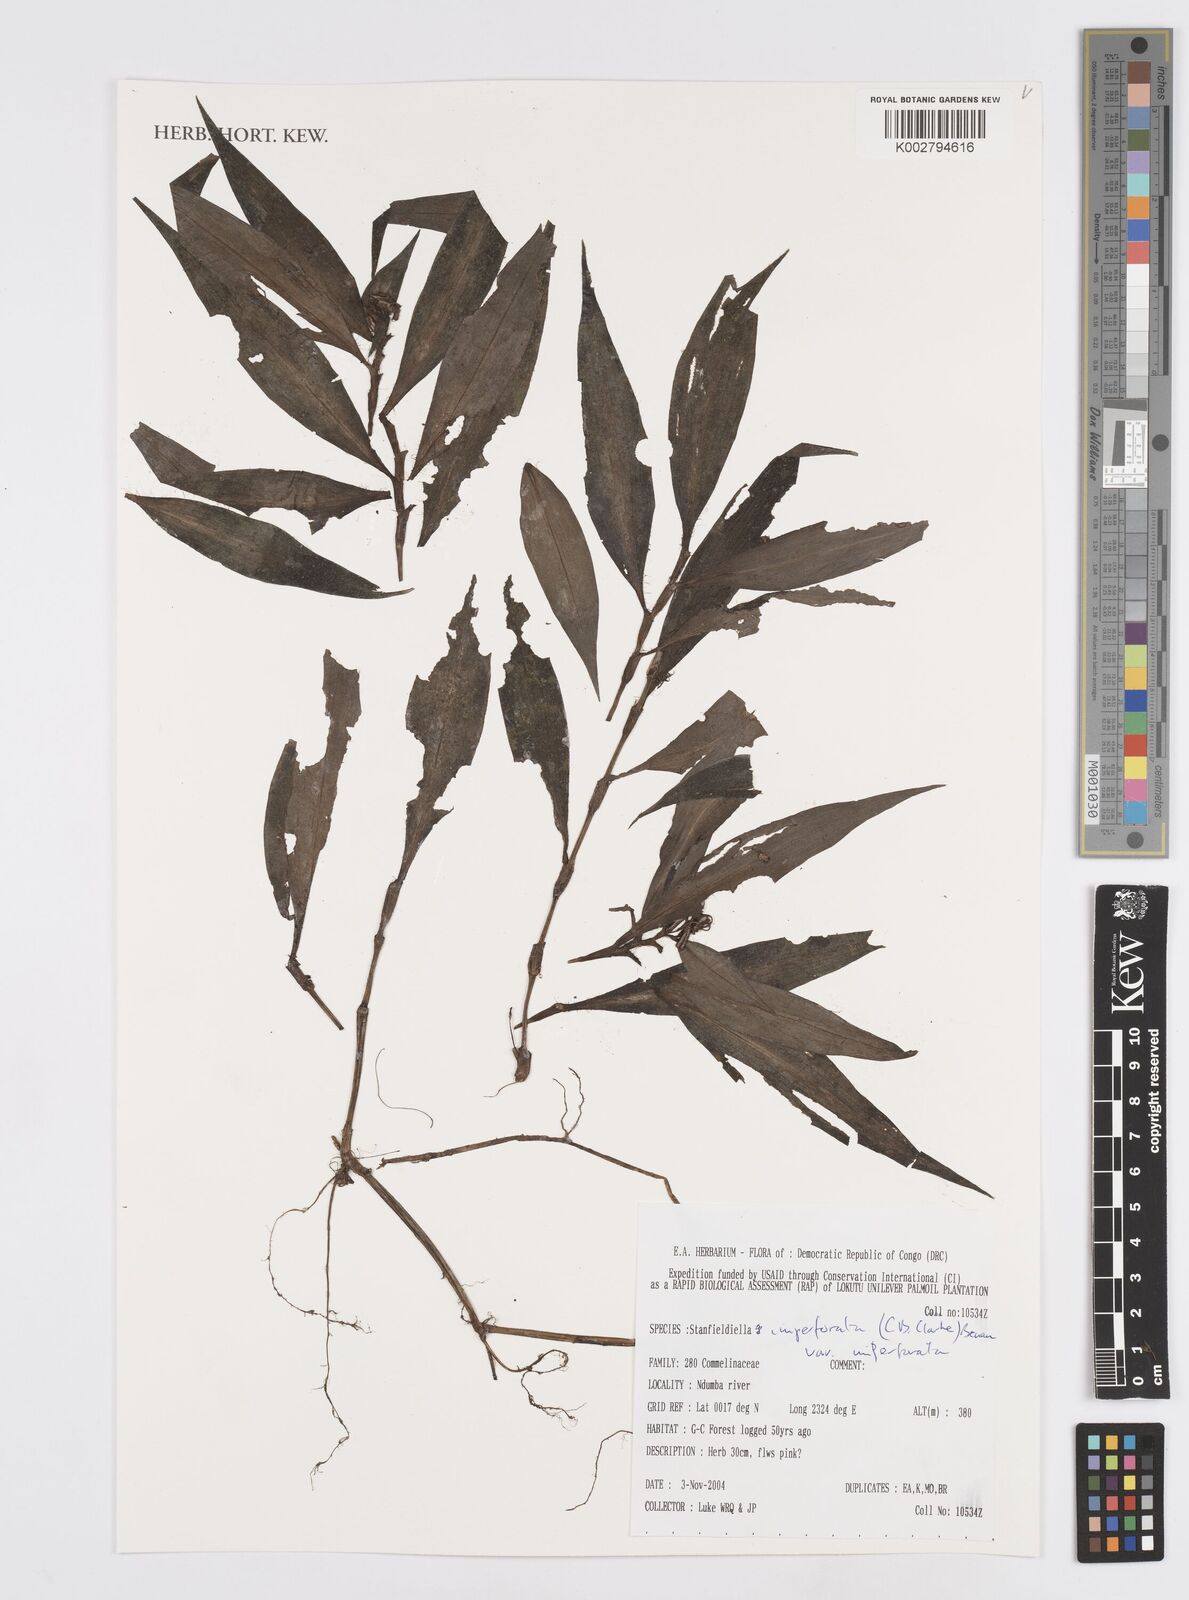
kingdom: Plantae
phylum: Tracheophyta
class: Liliopsida
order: Commelinales
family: Commelinaceae
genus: Stanfieldiella
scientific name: Stanfieldiella imperforata
